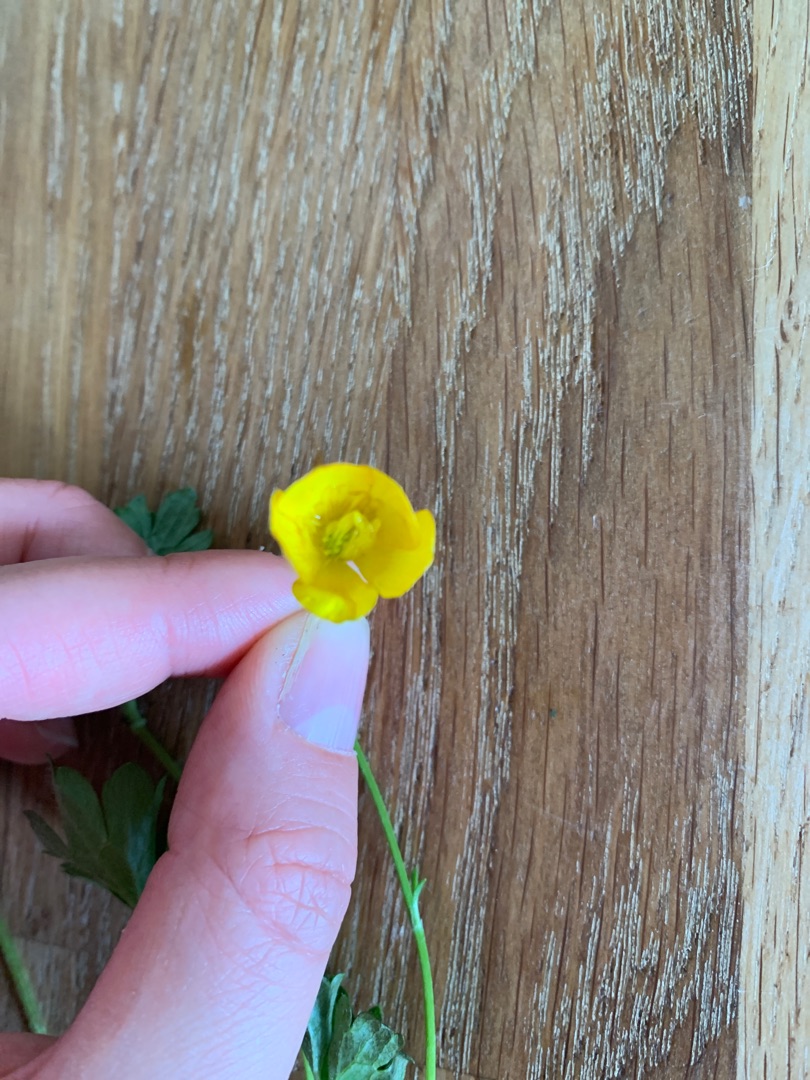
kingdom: Plantae
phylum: Tracheophyta
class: Magnoliopsida
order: Ranunculales
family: Ranunculaceae
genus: Ranunculus
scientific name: Ranunculus repens
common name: Lav ranunkel
